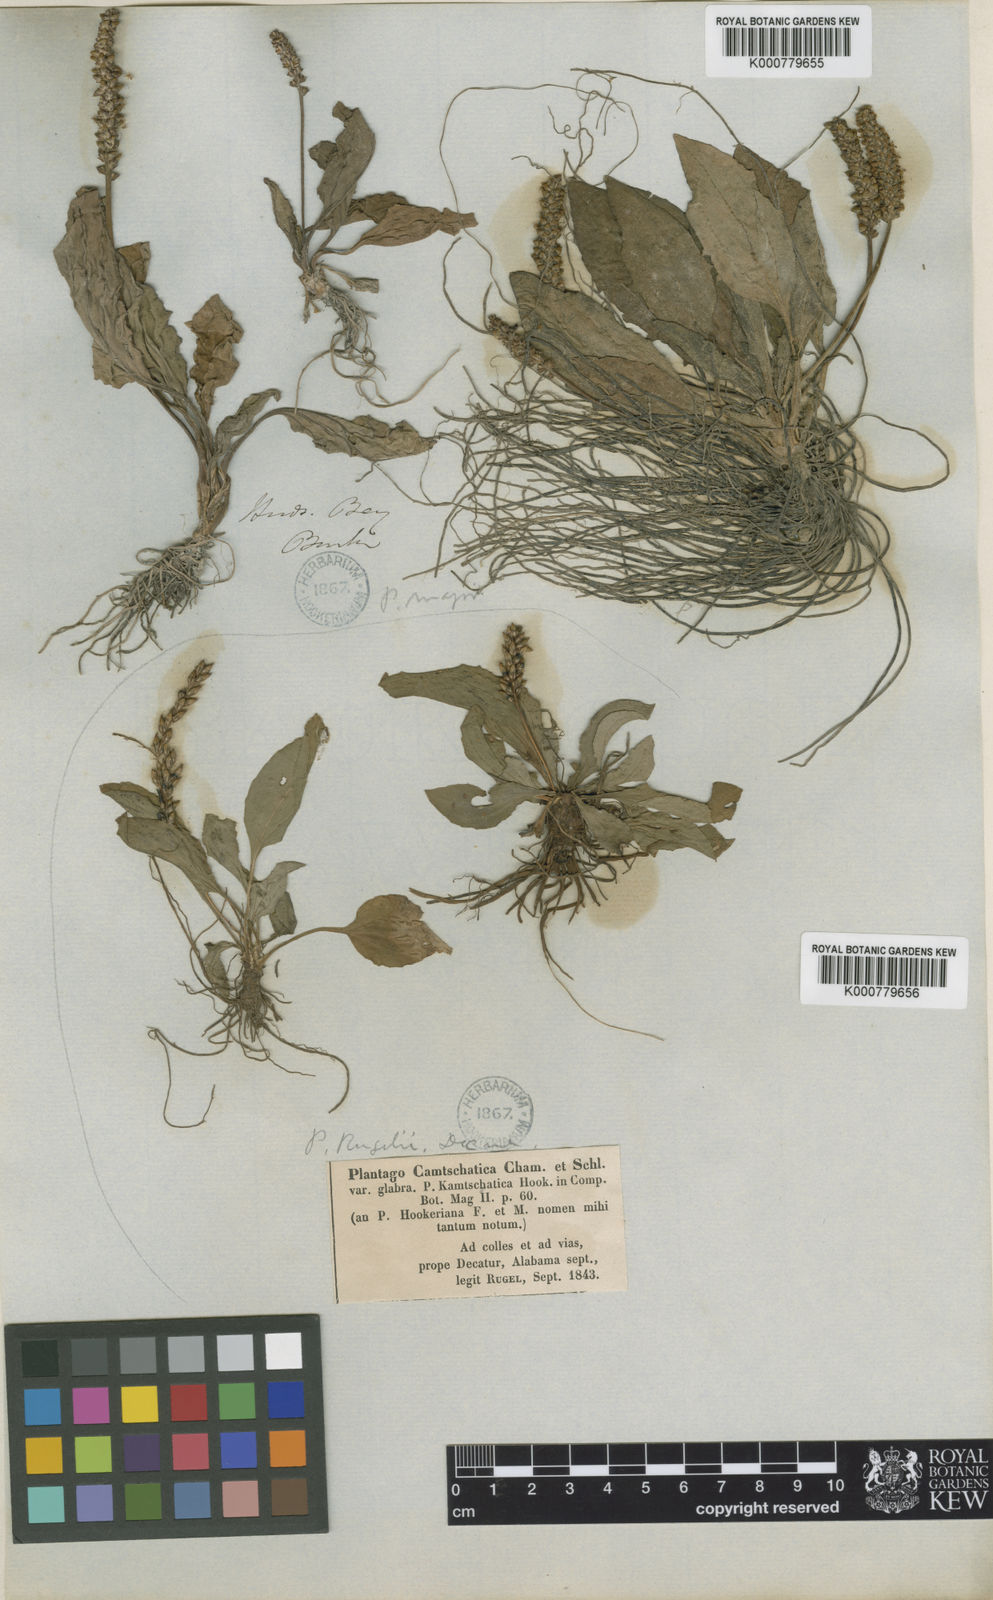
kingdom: Plantae
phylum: Tracheophyta
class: Magnoliopsida
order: Lamiales
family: Plantaginaceae
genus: Plantago
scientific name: Plantago rugelii
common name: American plantain
